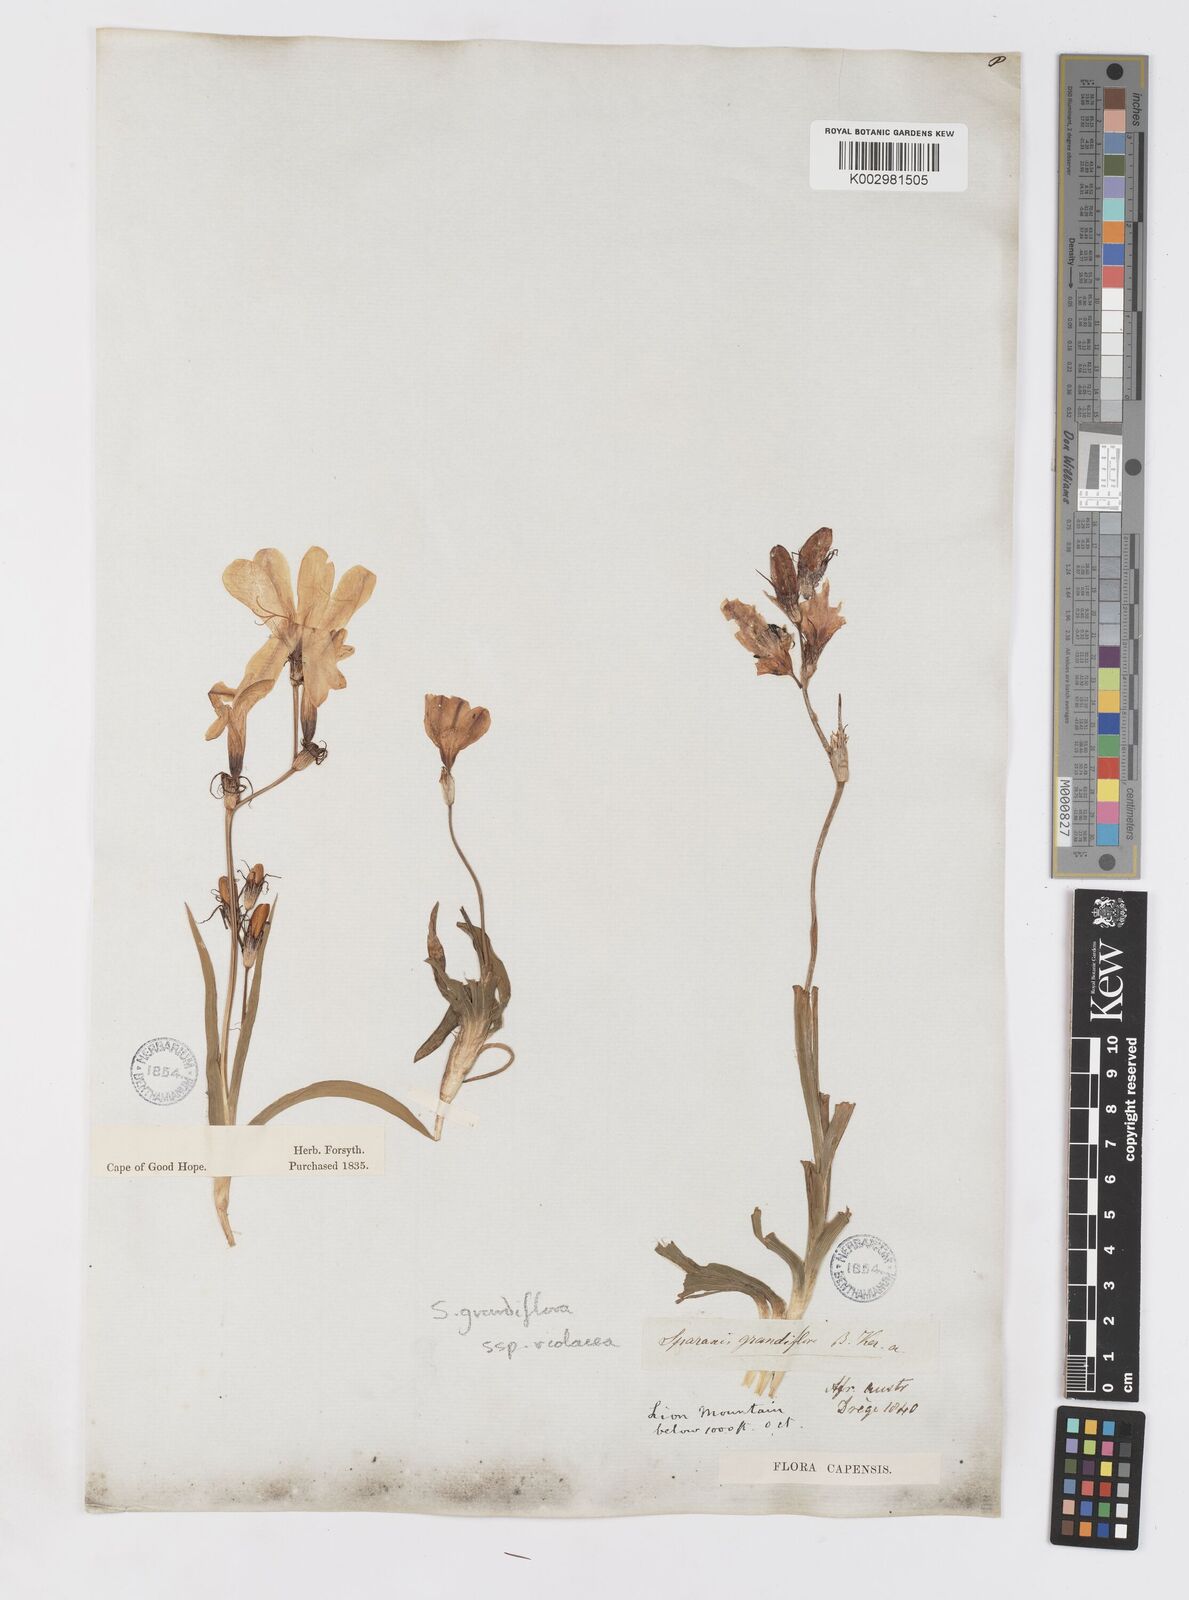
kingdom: Plantae
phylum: Tracheophyta
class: Liliopsida
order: Asparagales
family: Iridaceae
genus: Sparaxis
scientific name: Sparaxis grandiflora
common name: Plain harlequin-flower
